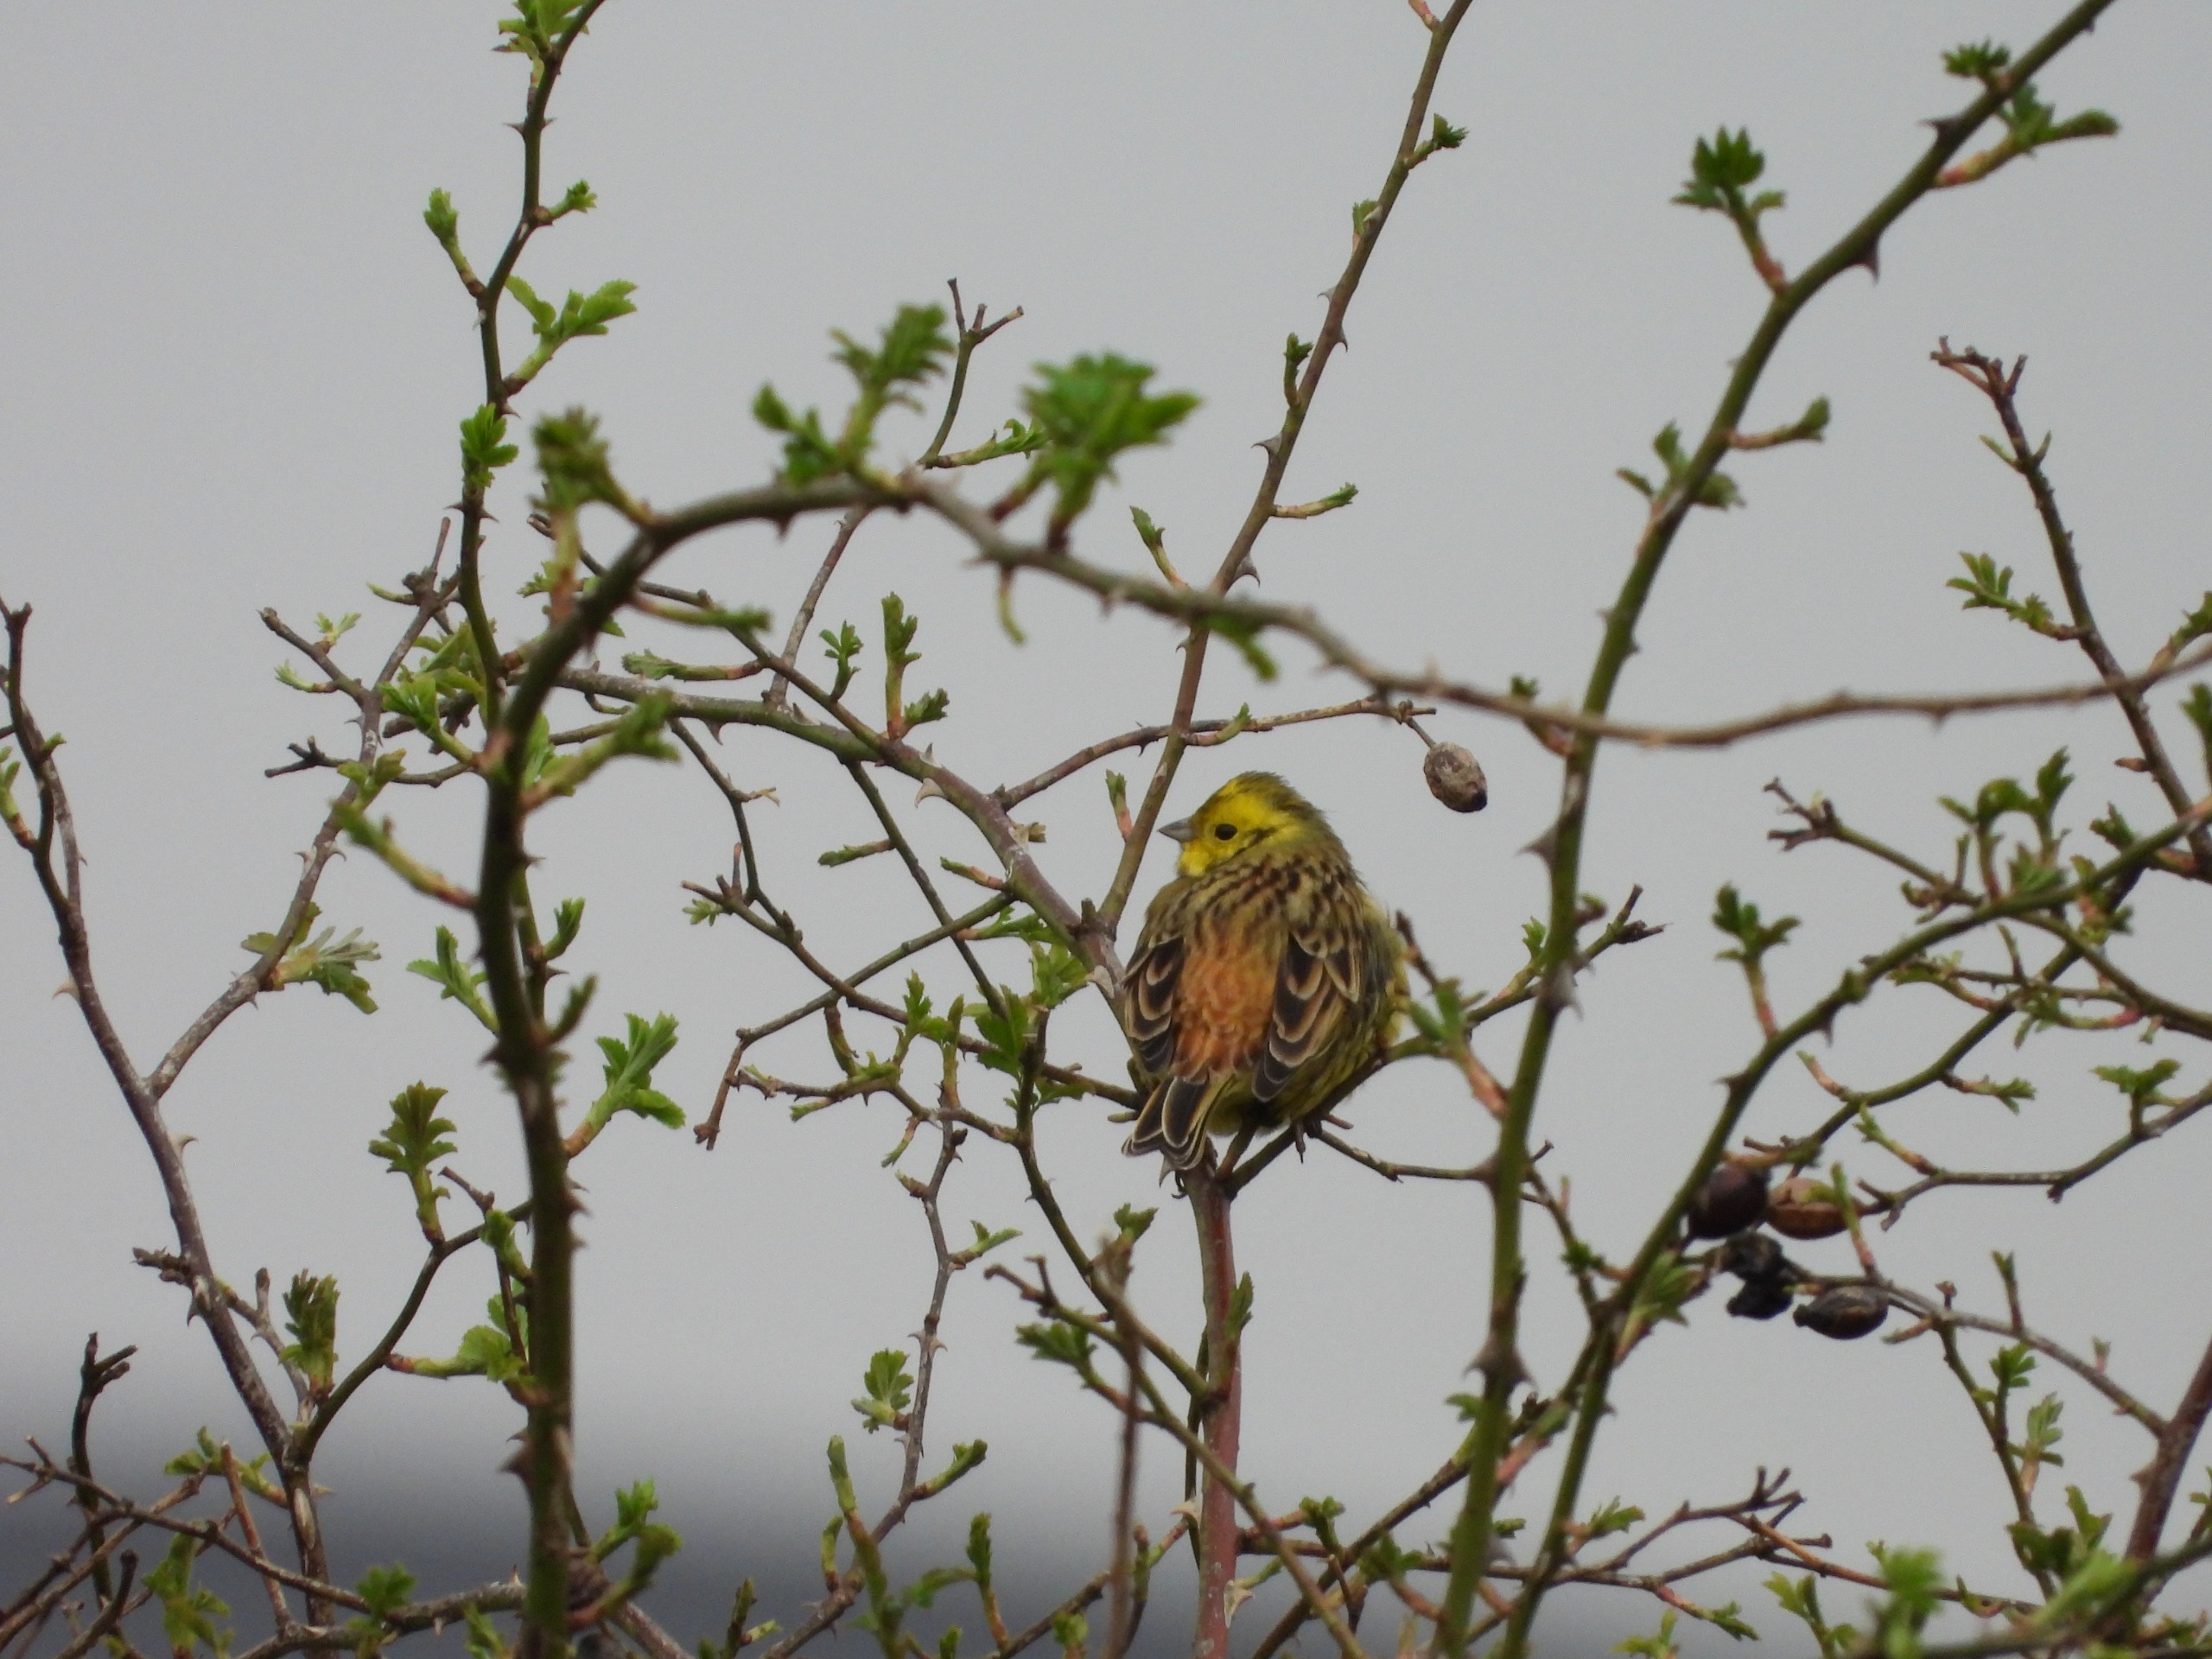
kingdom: Animalia
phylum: Chordata
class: Aves
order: Passeriformes
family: Emberizidae
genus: Emberiza
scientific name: Emberiza citrinella
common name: Gulspurv
